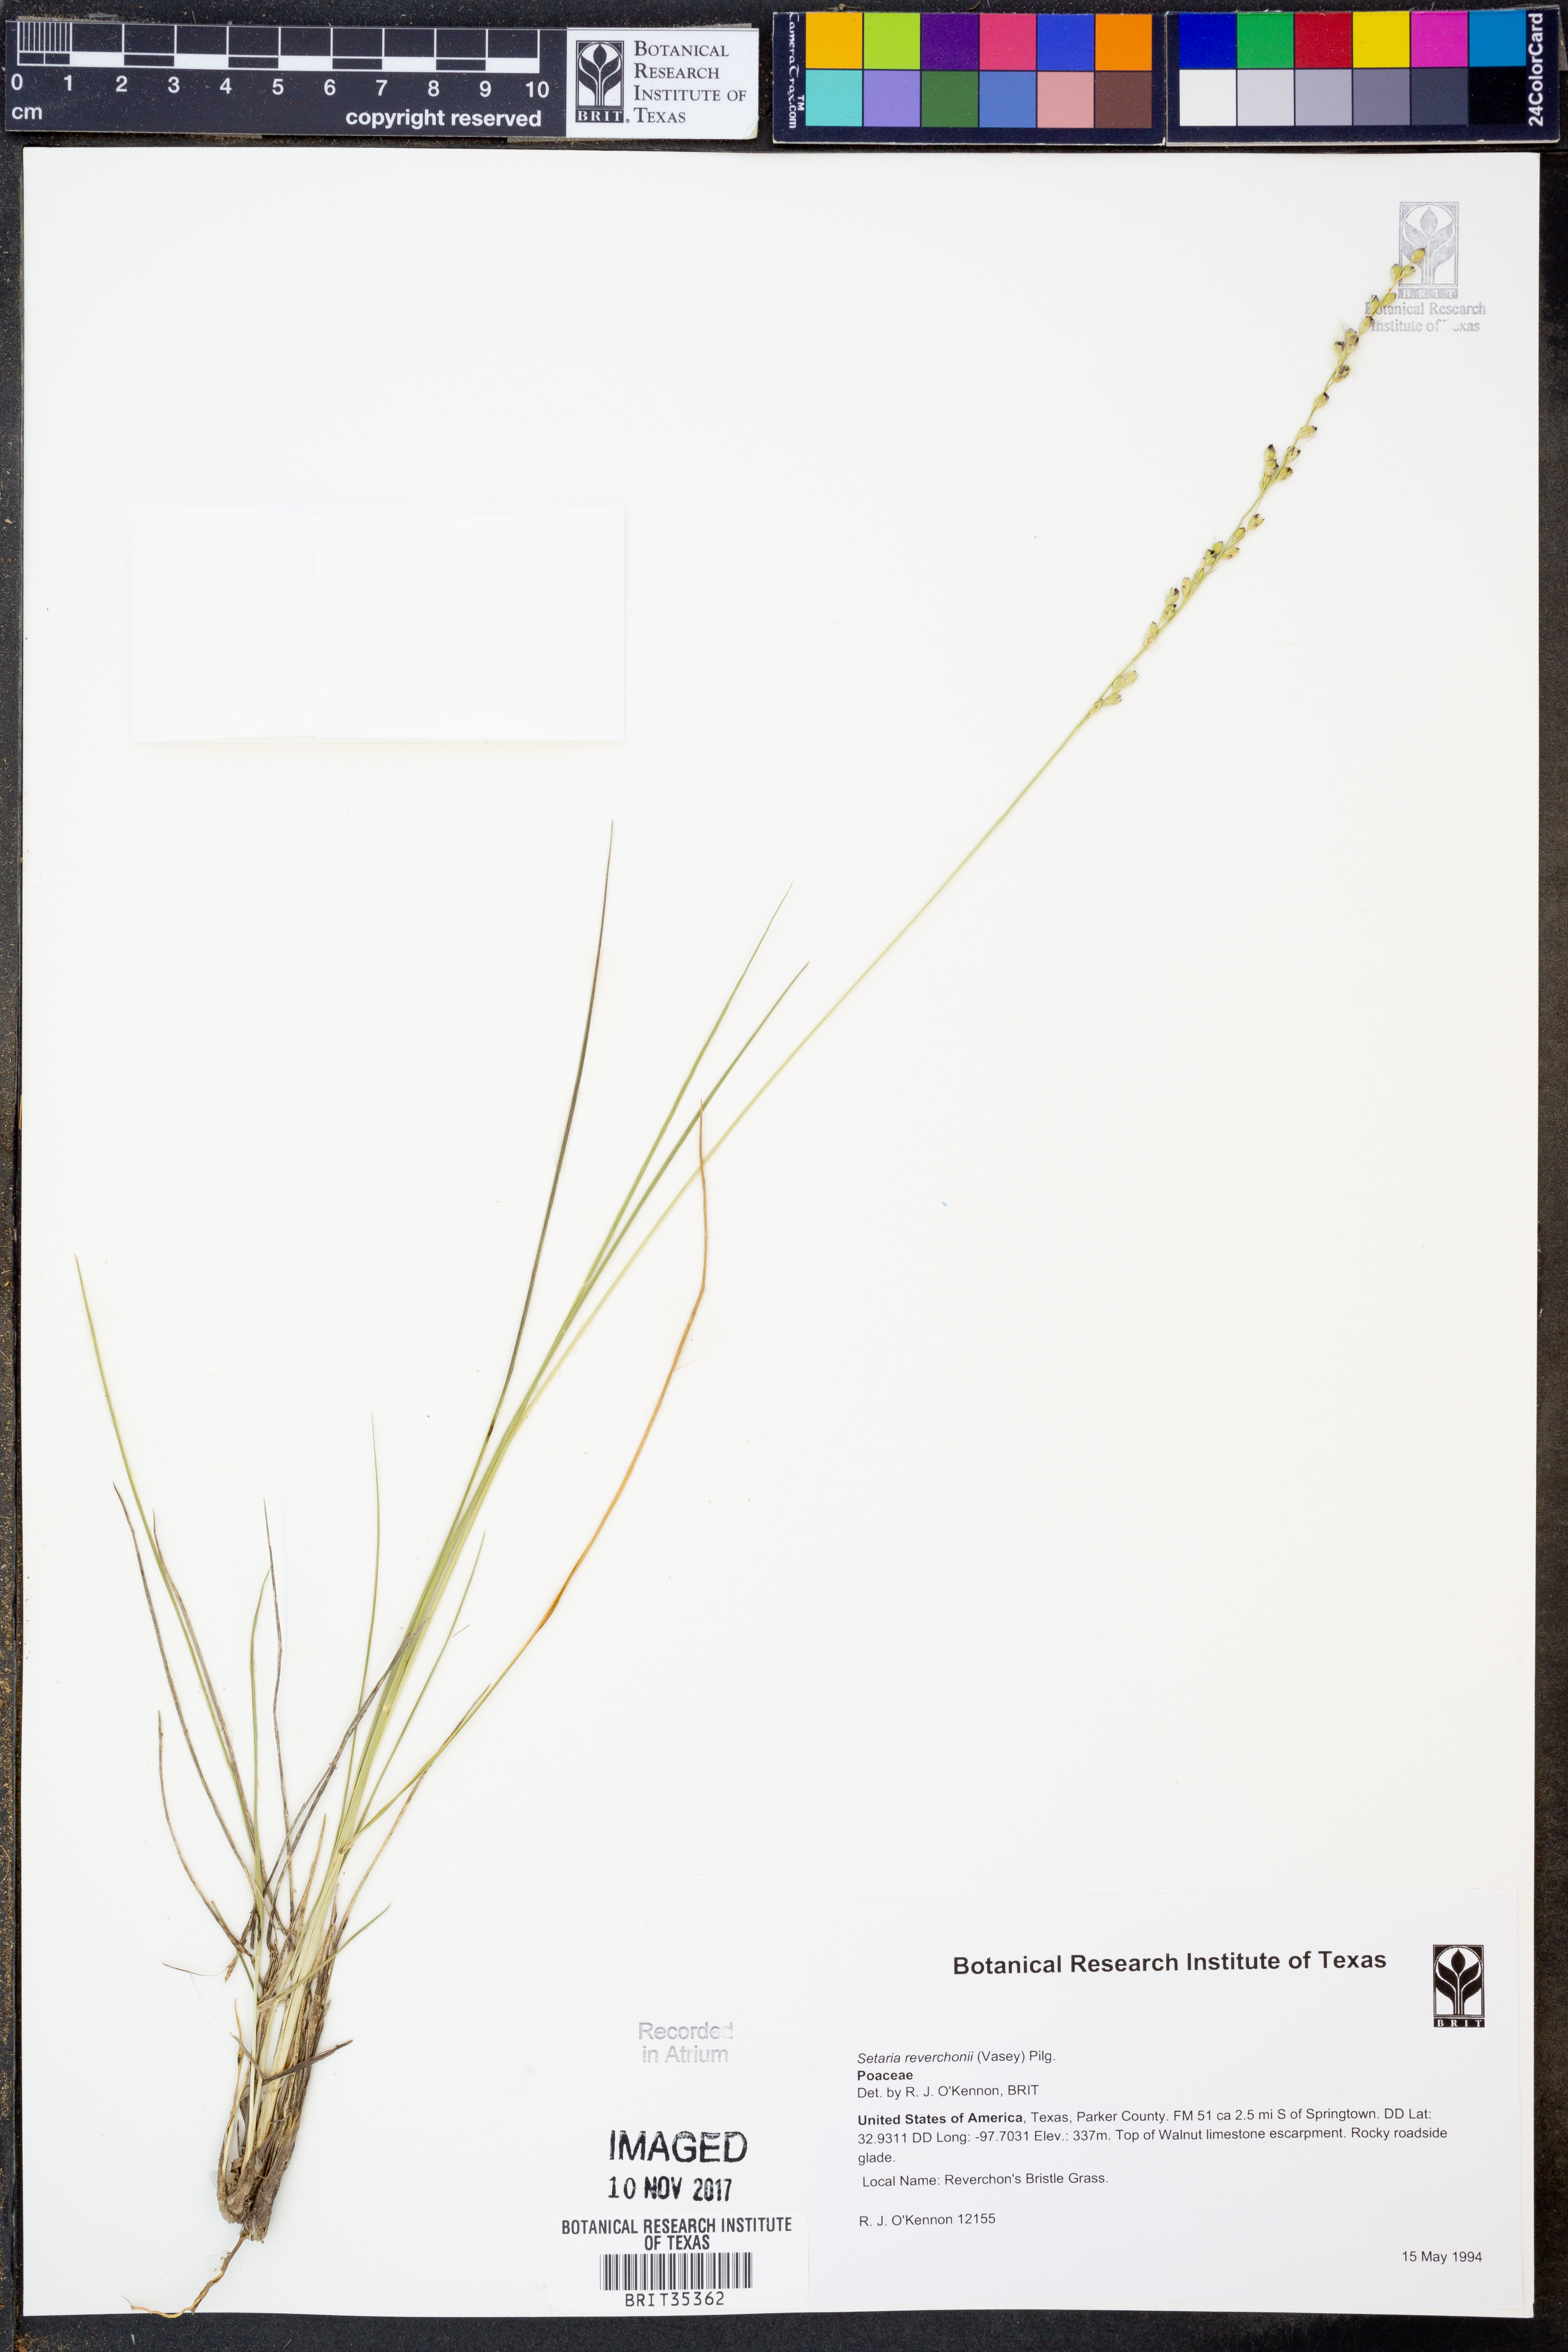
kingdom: Plantae
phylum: Tracheophyta
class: Liliopsida
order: Poales
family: Poaceae
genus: Setaria
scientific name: Setaria reverchonii
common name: Reverchon's bristle grass
